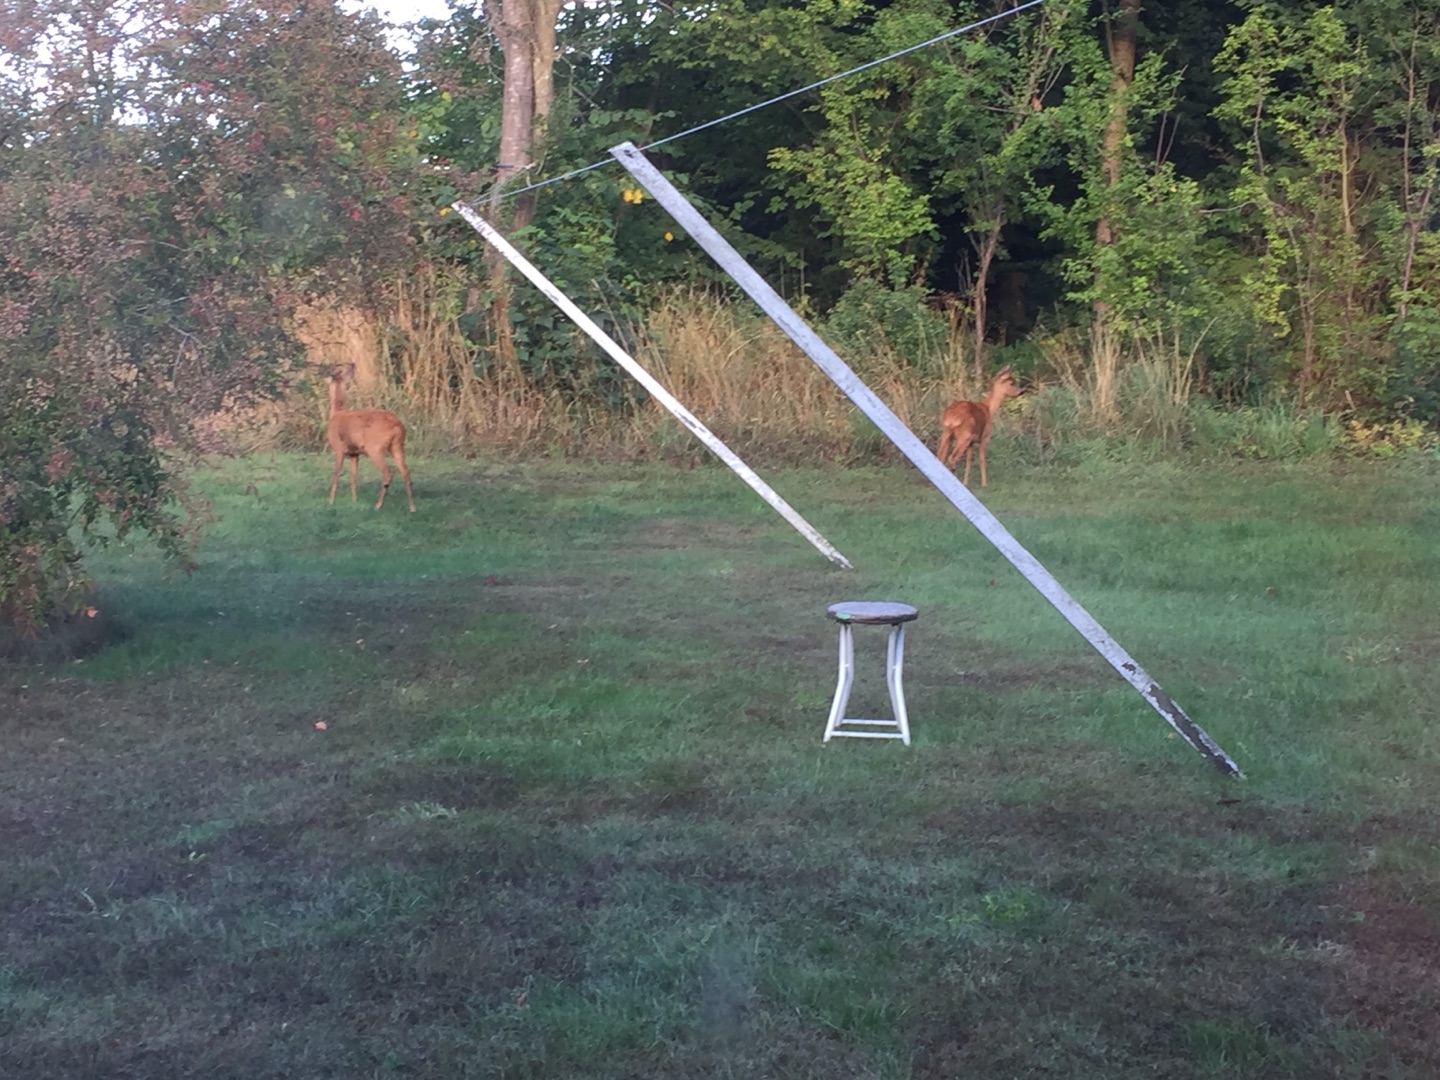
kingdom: Animalia
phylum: Chordata
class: Mammalia
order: Artiodactyla
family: Cervidae
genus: Capreolus
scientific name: Capreolus capreolus
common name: Rådyr
